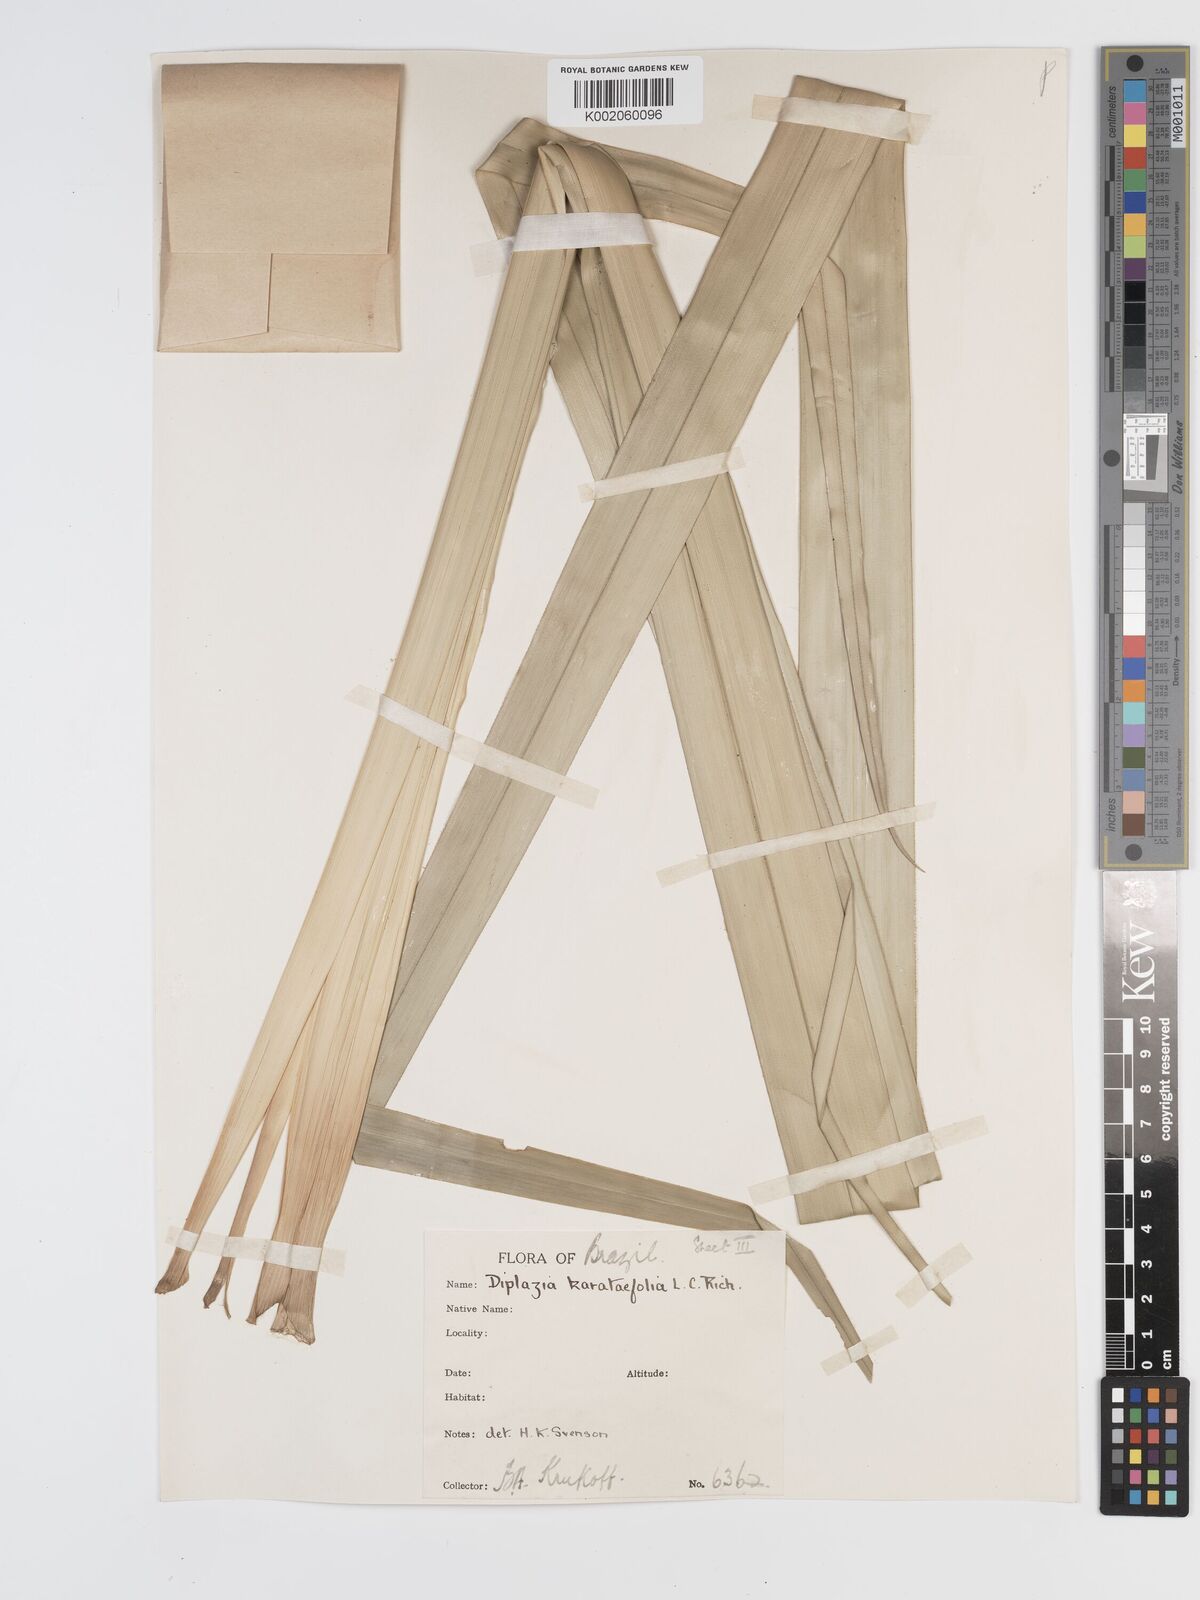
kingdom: Plantae
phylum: Tracheophyta
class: Liliopsida
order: Poales
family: Cyperaceae
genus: Diplasia
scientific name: Diplasia karatifolia
